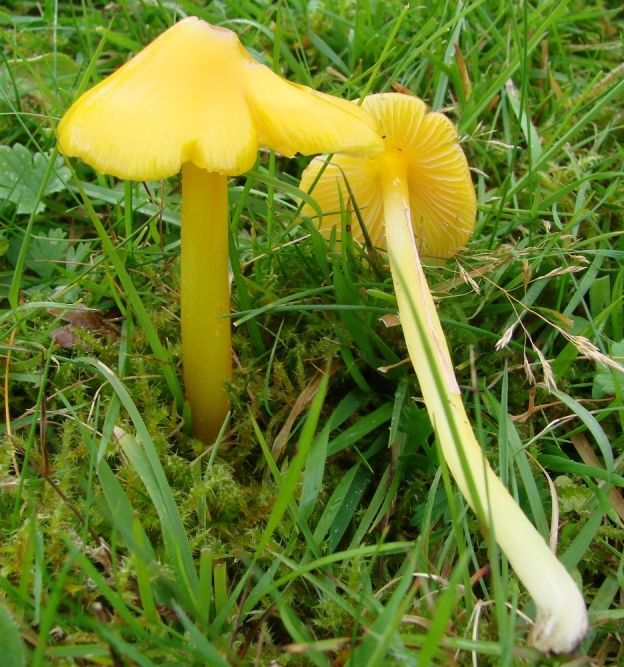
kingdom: Fungi
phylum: Basidiomycota
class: Agaricomycetes
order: Agaricales
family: Hygrophoraceae
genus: Hygrocybe
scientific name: Hygrocybe acutoconica
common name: spidspuklet vokshat
